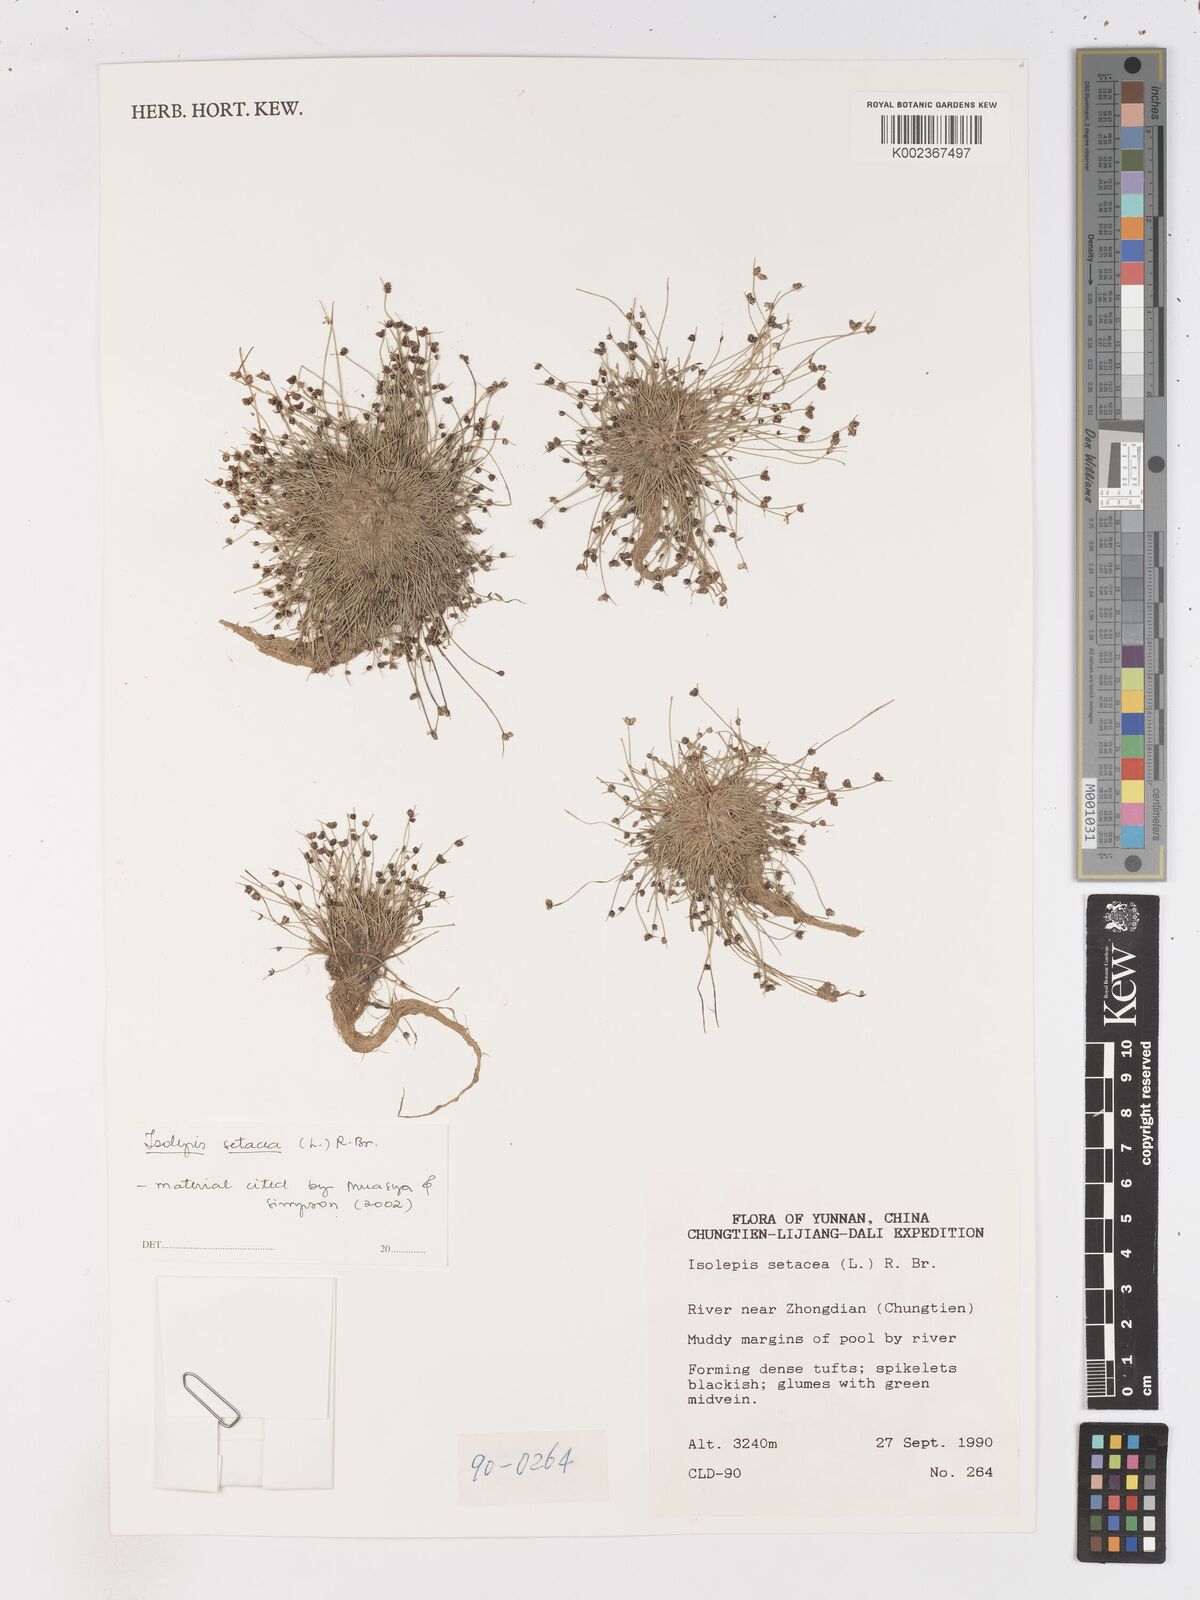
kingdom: Plantae
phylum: Tracheophyta
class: Liliopsida
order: Poales
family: Cyperaceae
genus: Isolepis
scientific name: Isolepis setacea
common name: Bristle club-rush
